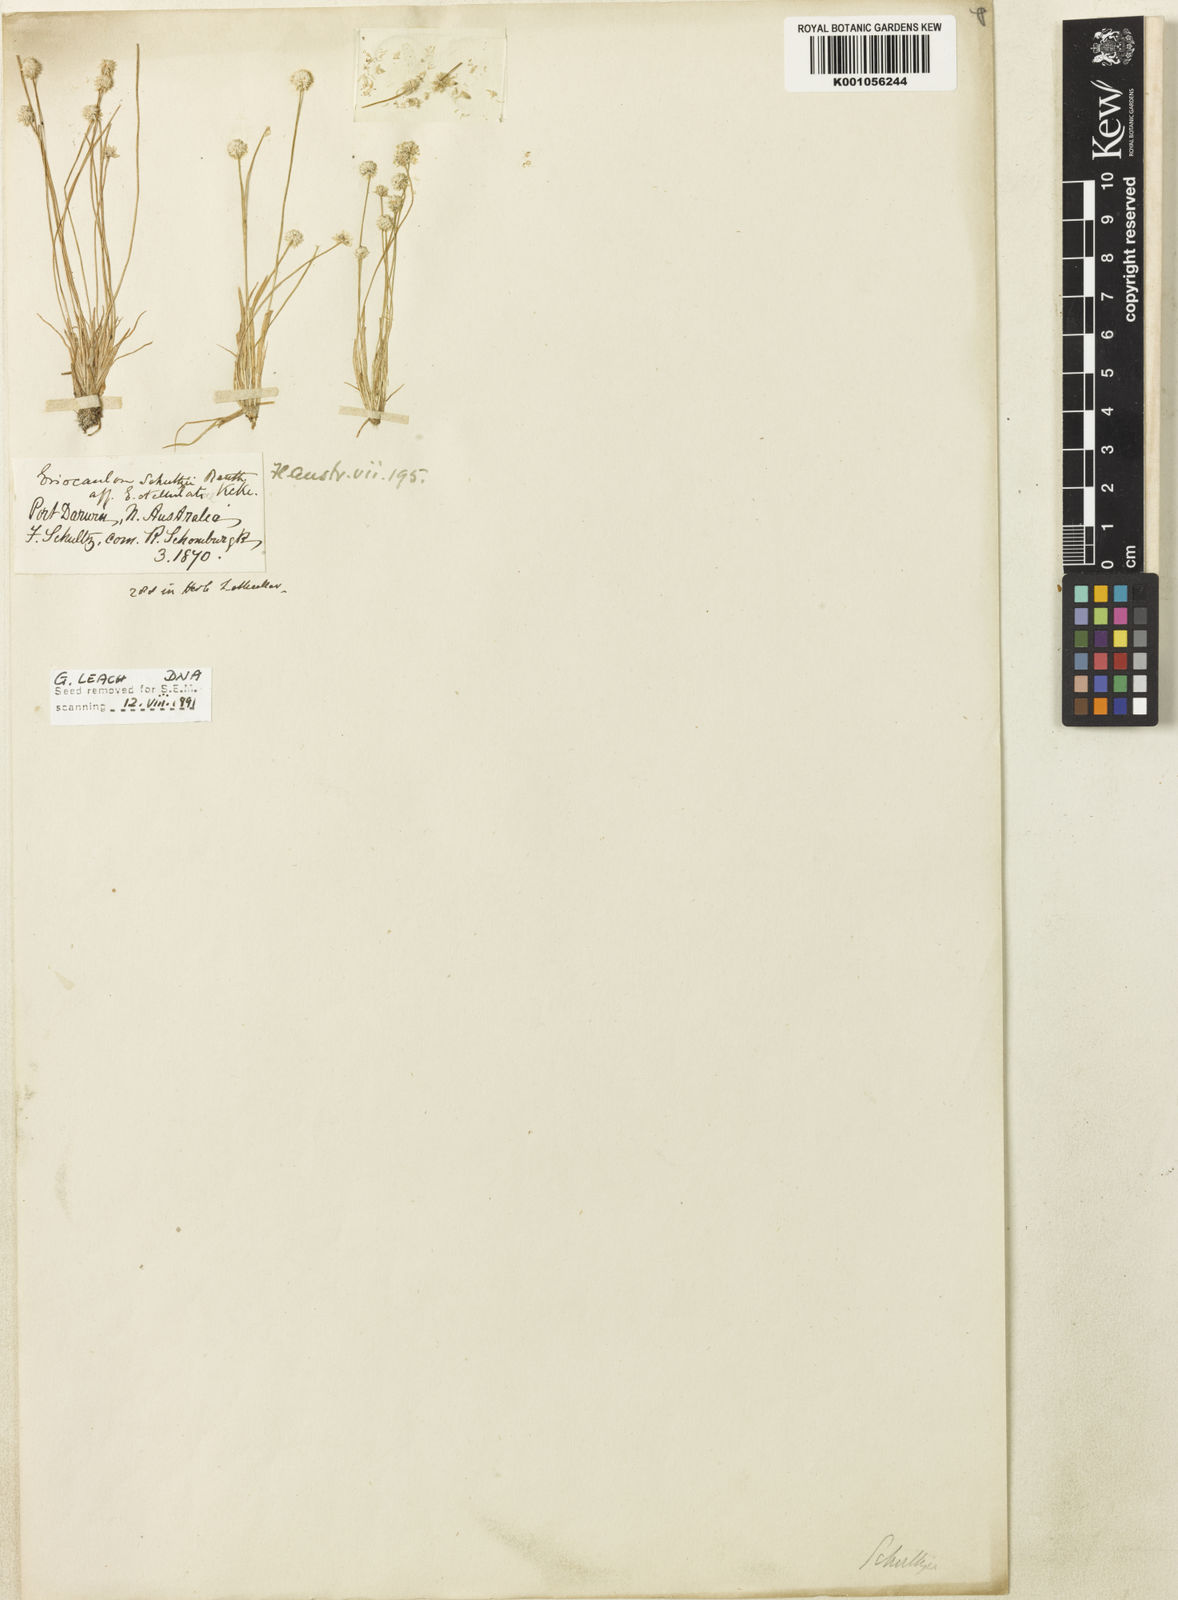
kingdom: Plantae
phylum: Tracheophyta
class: Liliopsida
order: Poales
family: Eriocaulaceae
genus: Eriocaulon
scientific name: Eriocaulon schultzii
